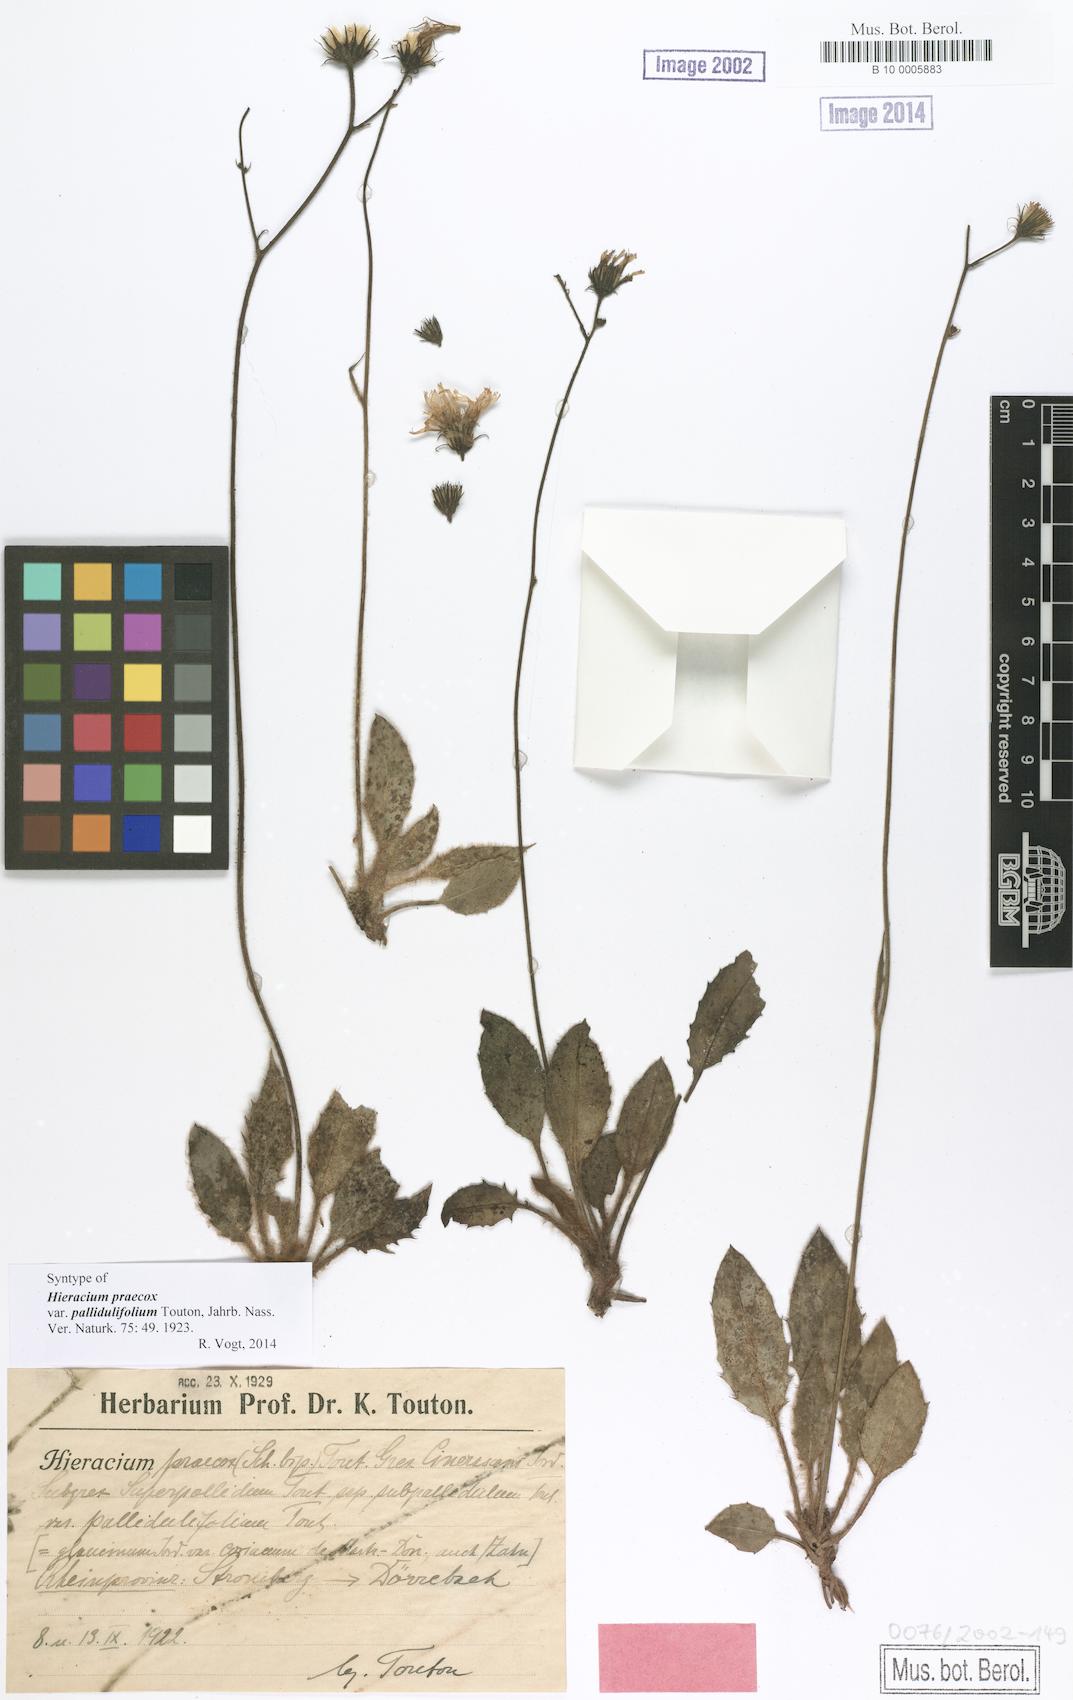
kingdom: Plantae
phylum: Tracheophyta
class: Magnoliopsida
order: Asterales
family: Asteraceae
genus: Hieracium
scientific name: Hieracium praecox
